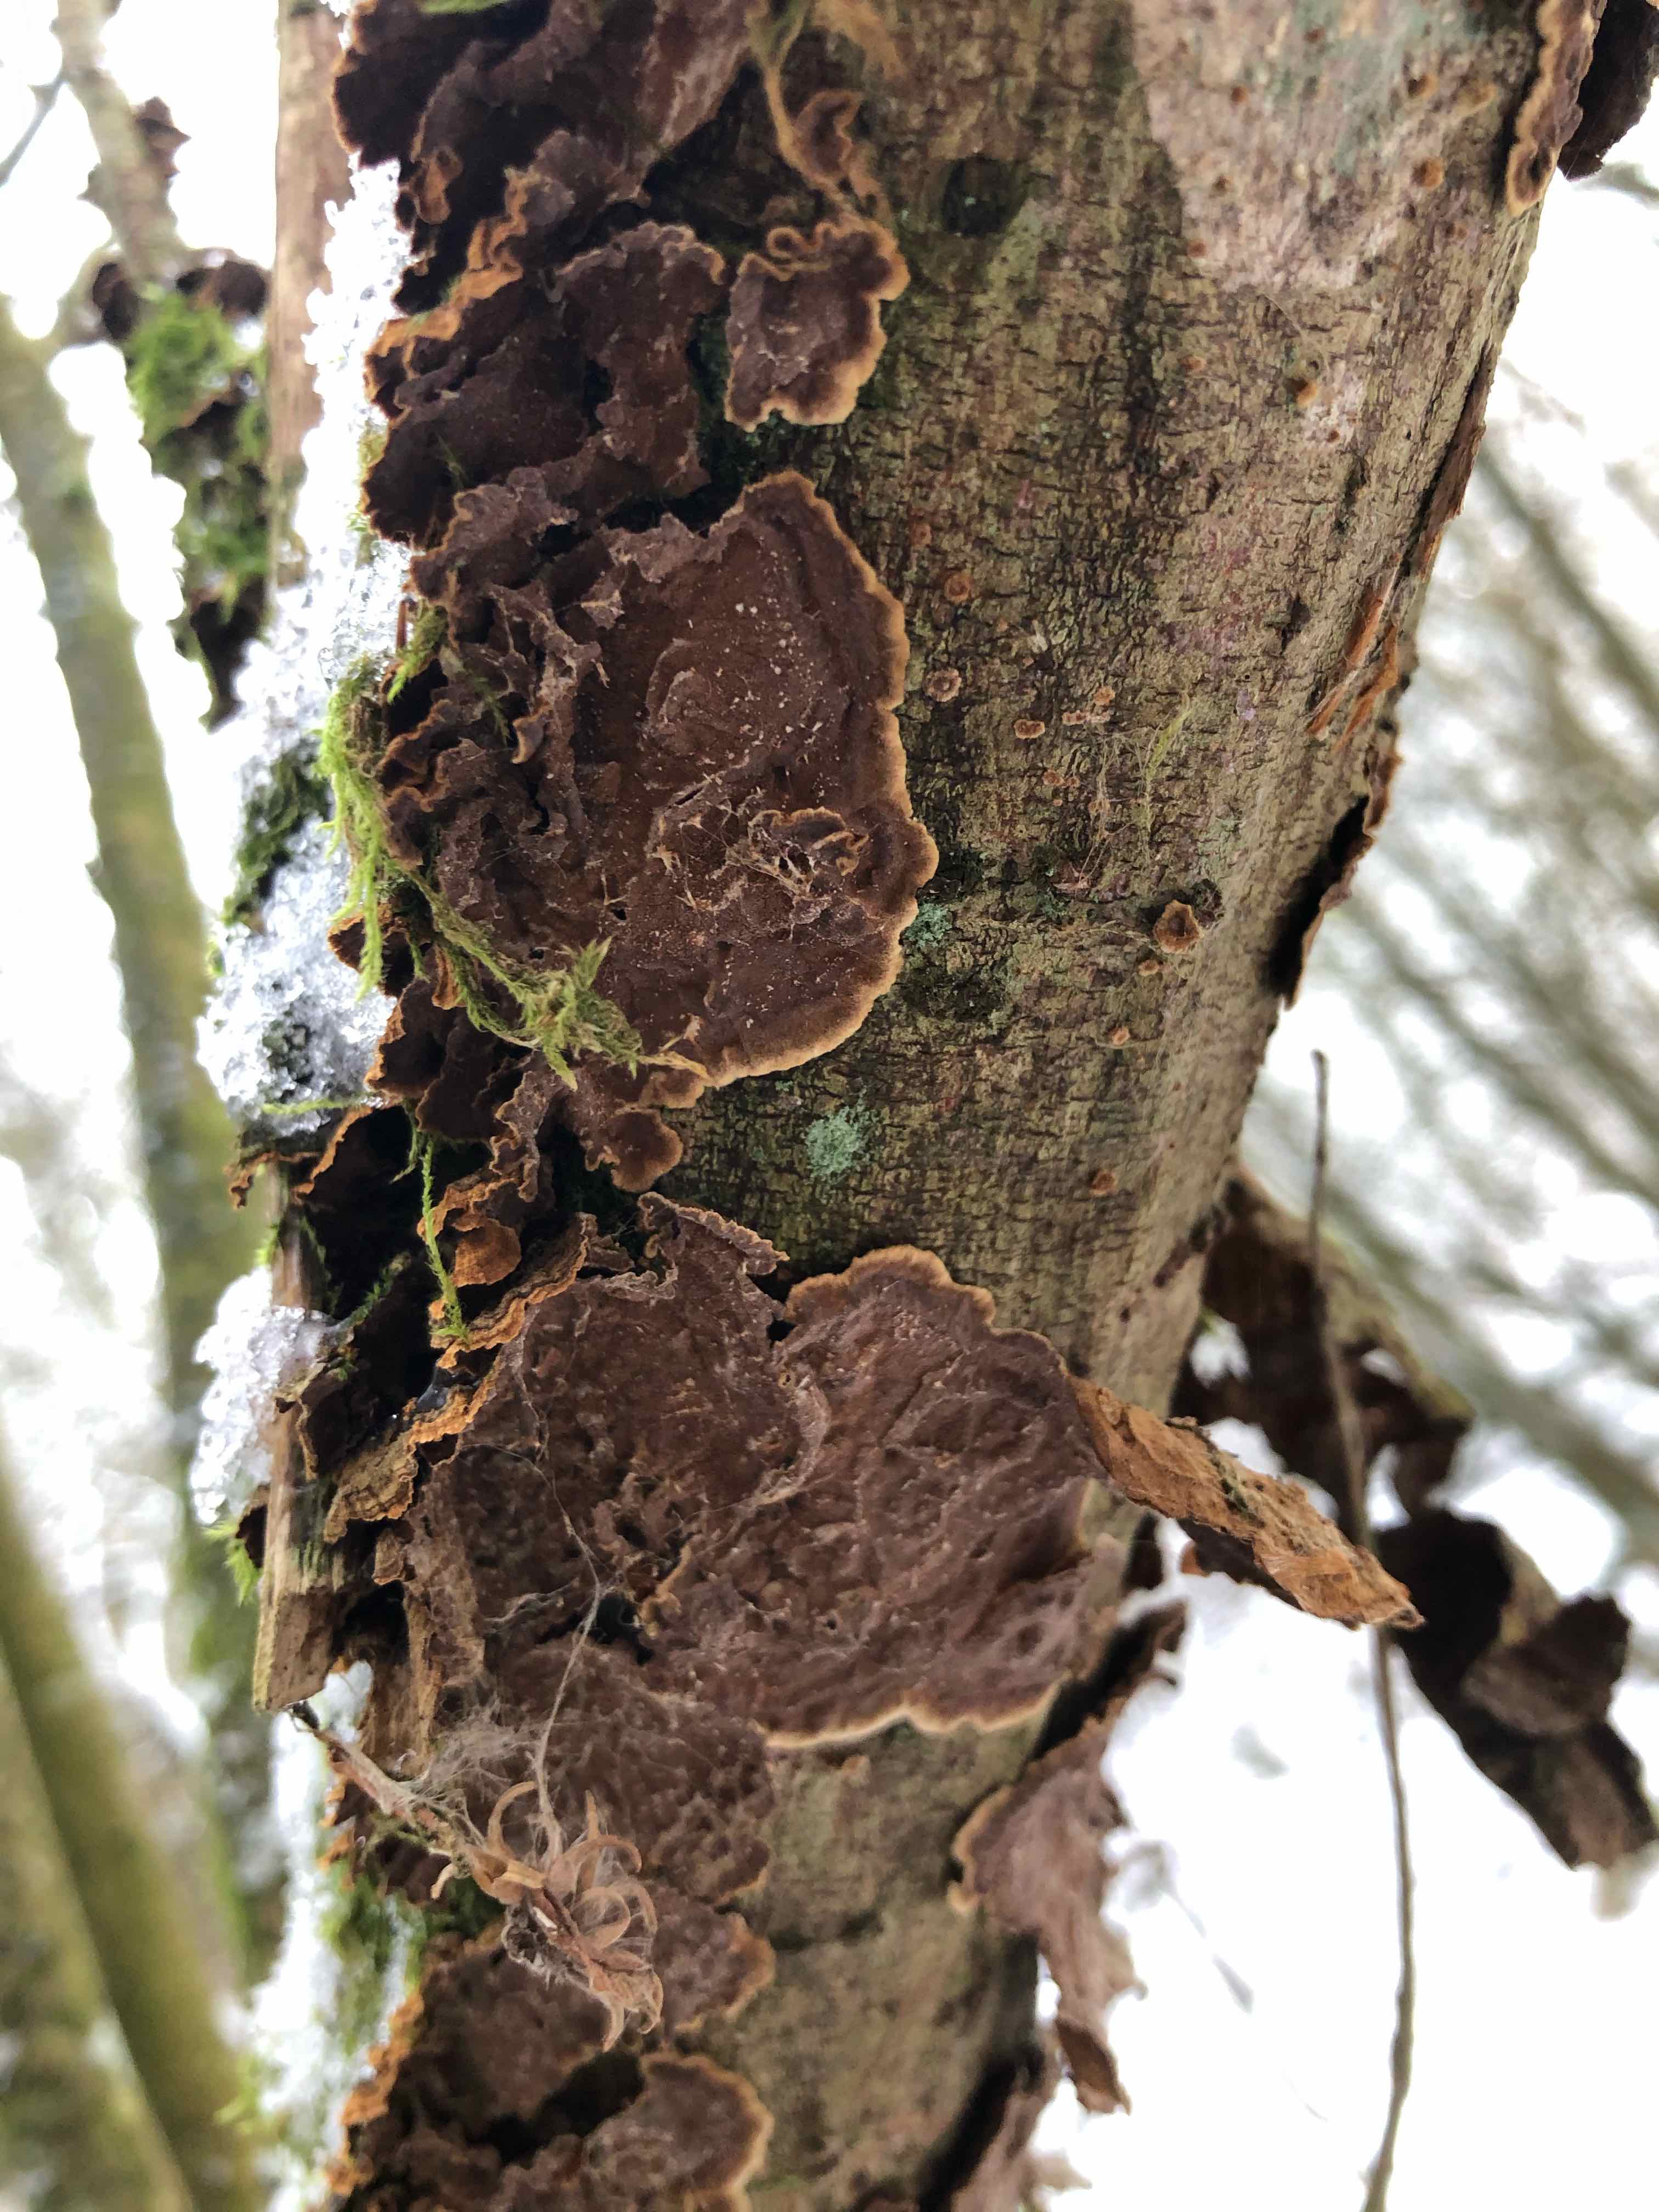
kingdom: Fungi
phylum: Basidiomycota
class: Agaricomycetes
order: Hymenochaetales
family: Hymenochaetaceae
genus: Hydnoporia
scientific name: Hydnoporia tabacina
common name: tobaksbrun ruslædersvamp
